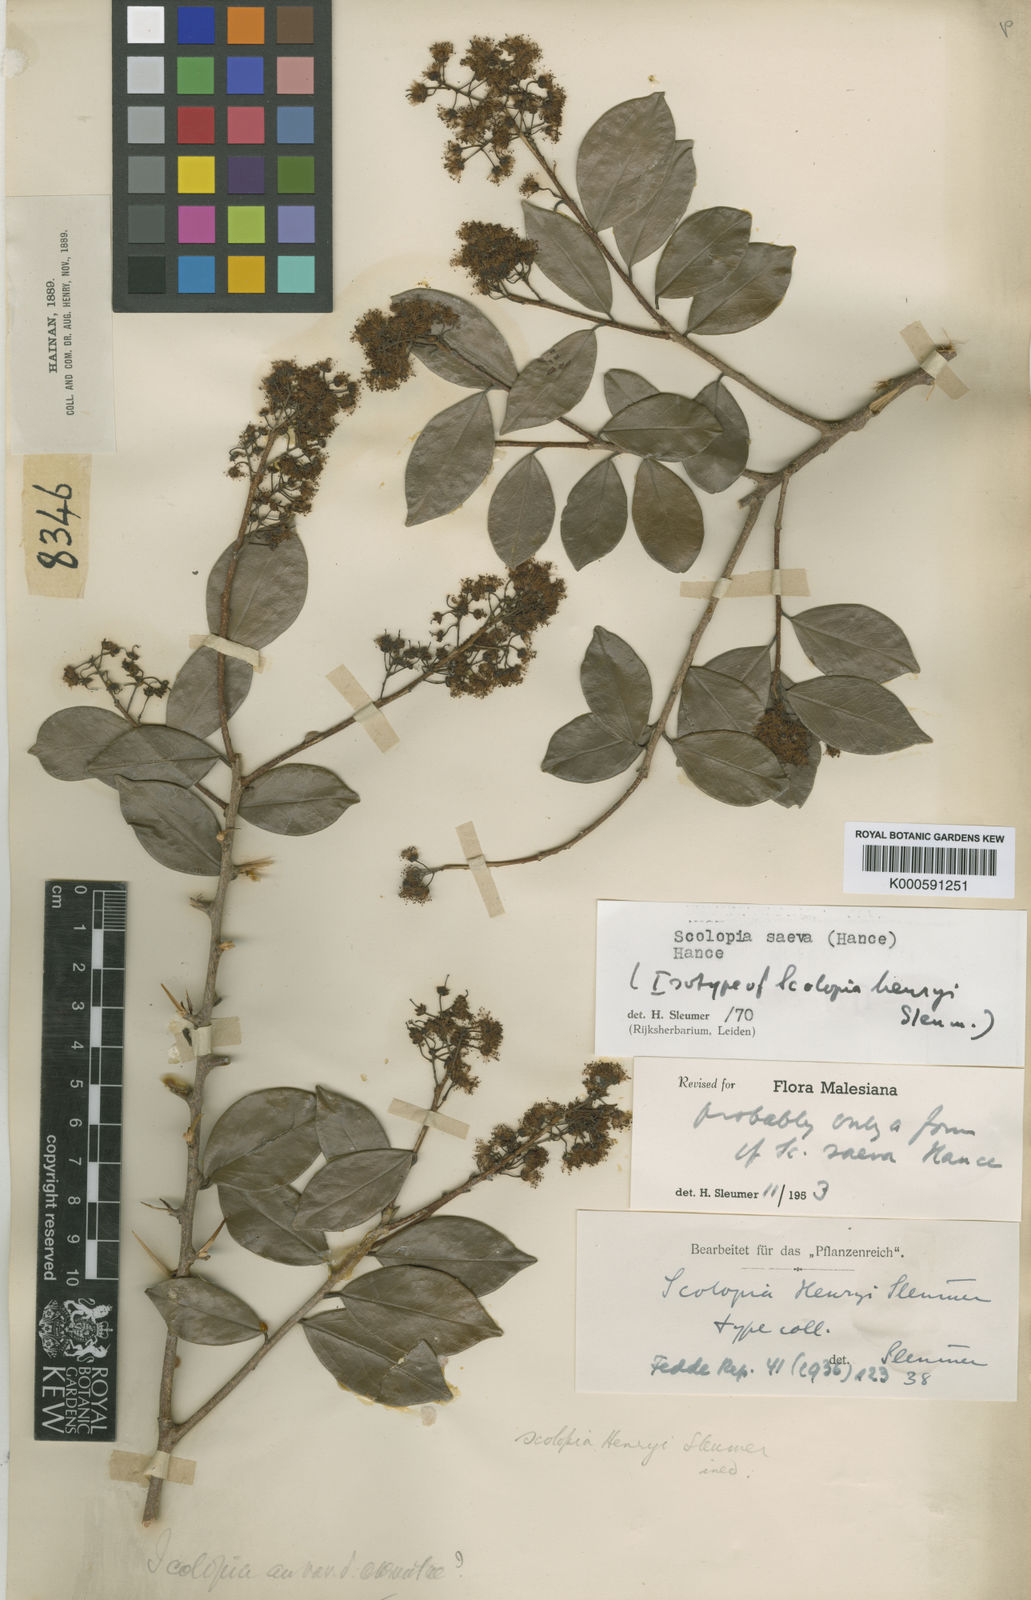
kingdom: Plantae
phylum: Tracheophyta
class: Magnoliopsida
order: Malpighiales
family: Salicaceae
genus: Scolopia
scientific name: Scolopia saeva
